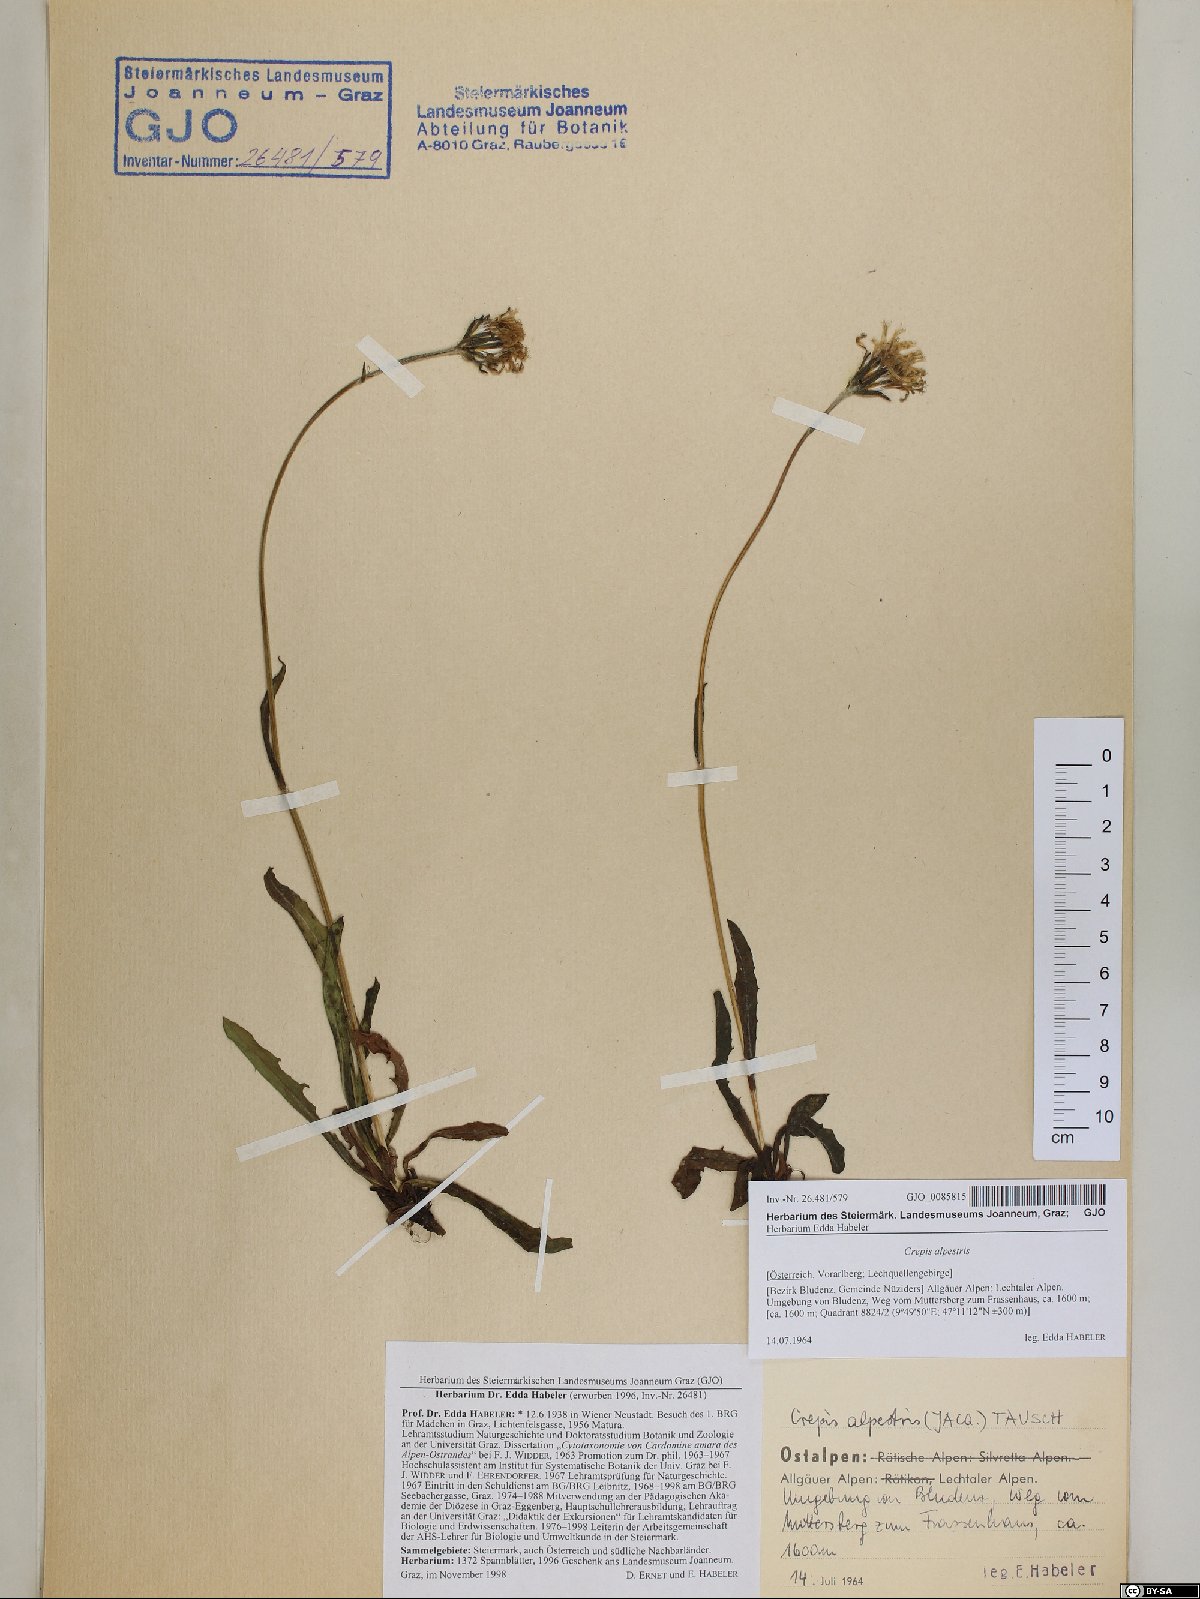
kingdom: Plantae
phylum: Tracheophyta
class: Magnoliopsida
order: Asterales
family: Asteraceae
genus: Crepis
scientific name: Crepis alpestris
